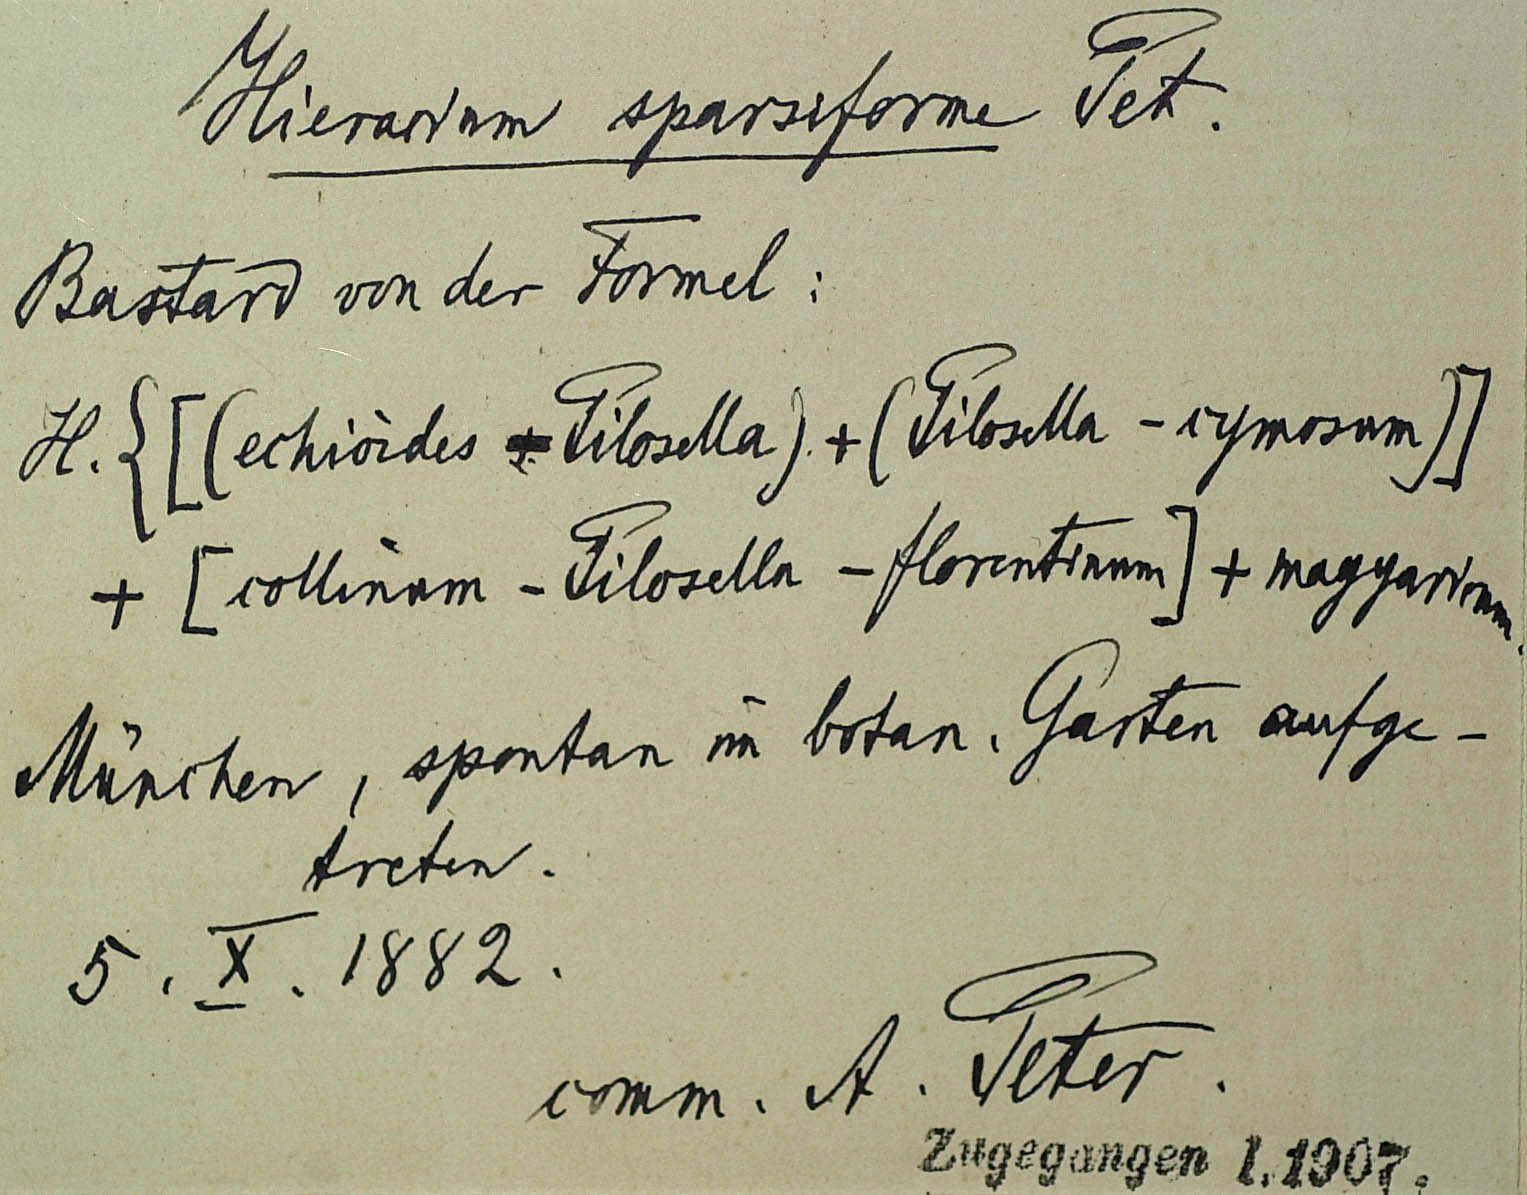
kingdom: Plantae
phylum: Tracheophyta
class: Magnoliopsida
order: Asterales
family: Asteraceae
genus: Hieracium
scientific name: Hieracium sparsiforme
